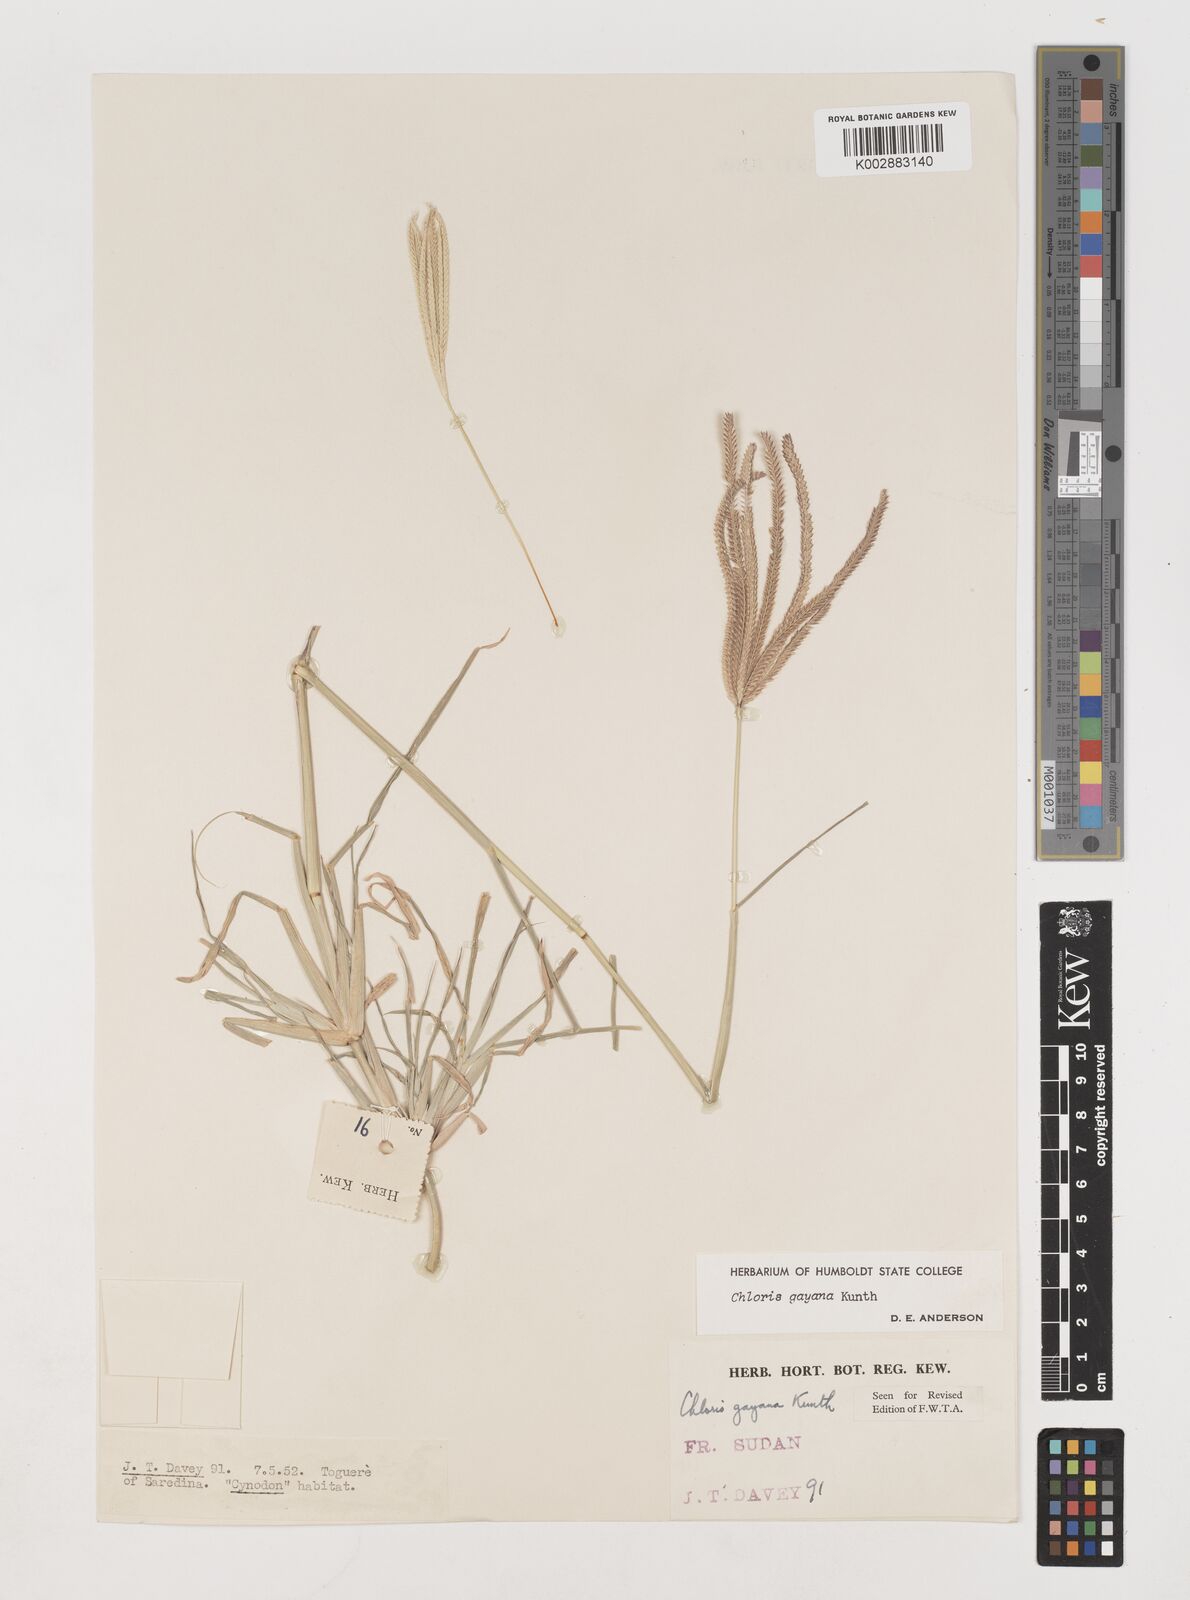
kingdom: Plantae
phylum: Tracheophyta
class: Liliopsida
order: Poales
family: Poaceae
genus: Chloris
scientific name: Chloris gayana
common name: Rhodes grass
